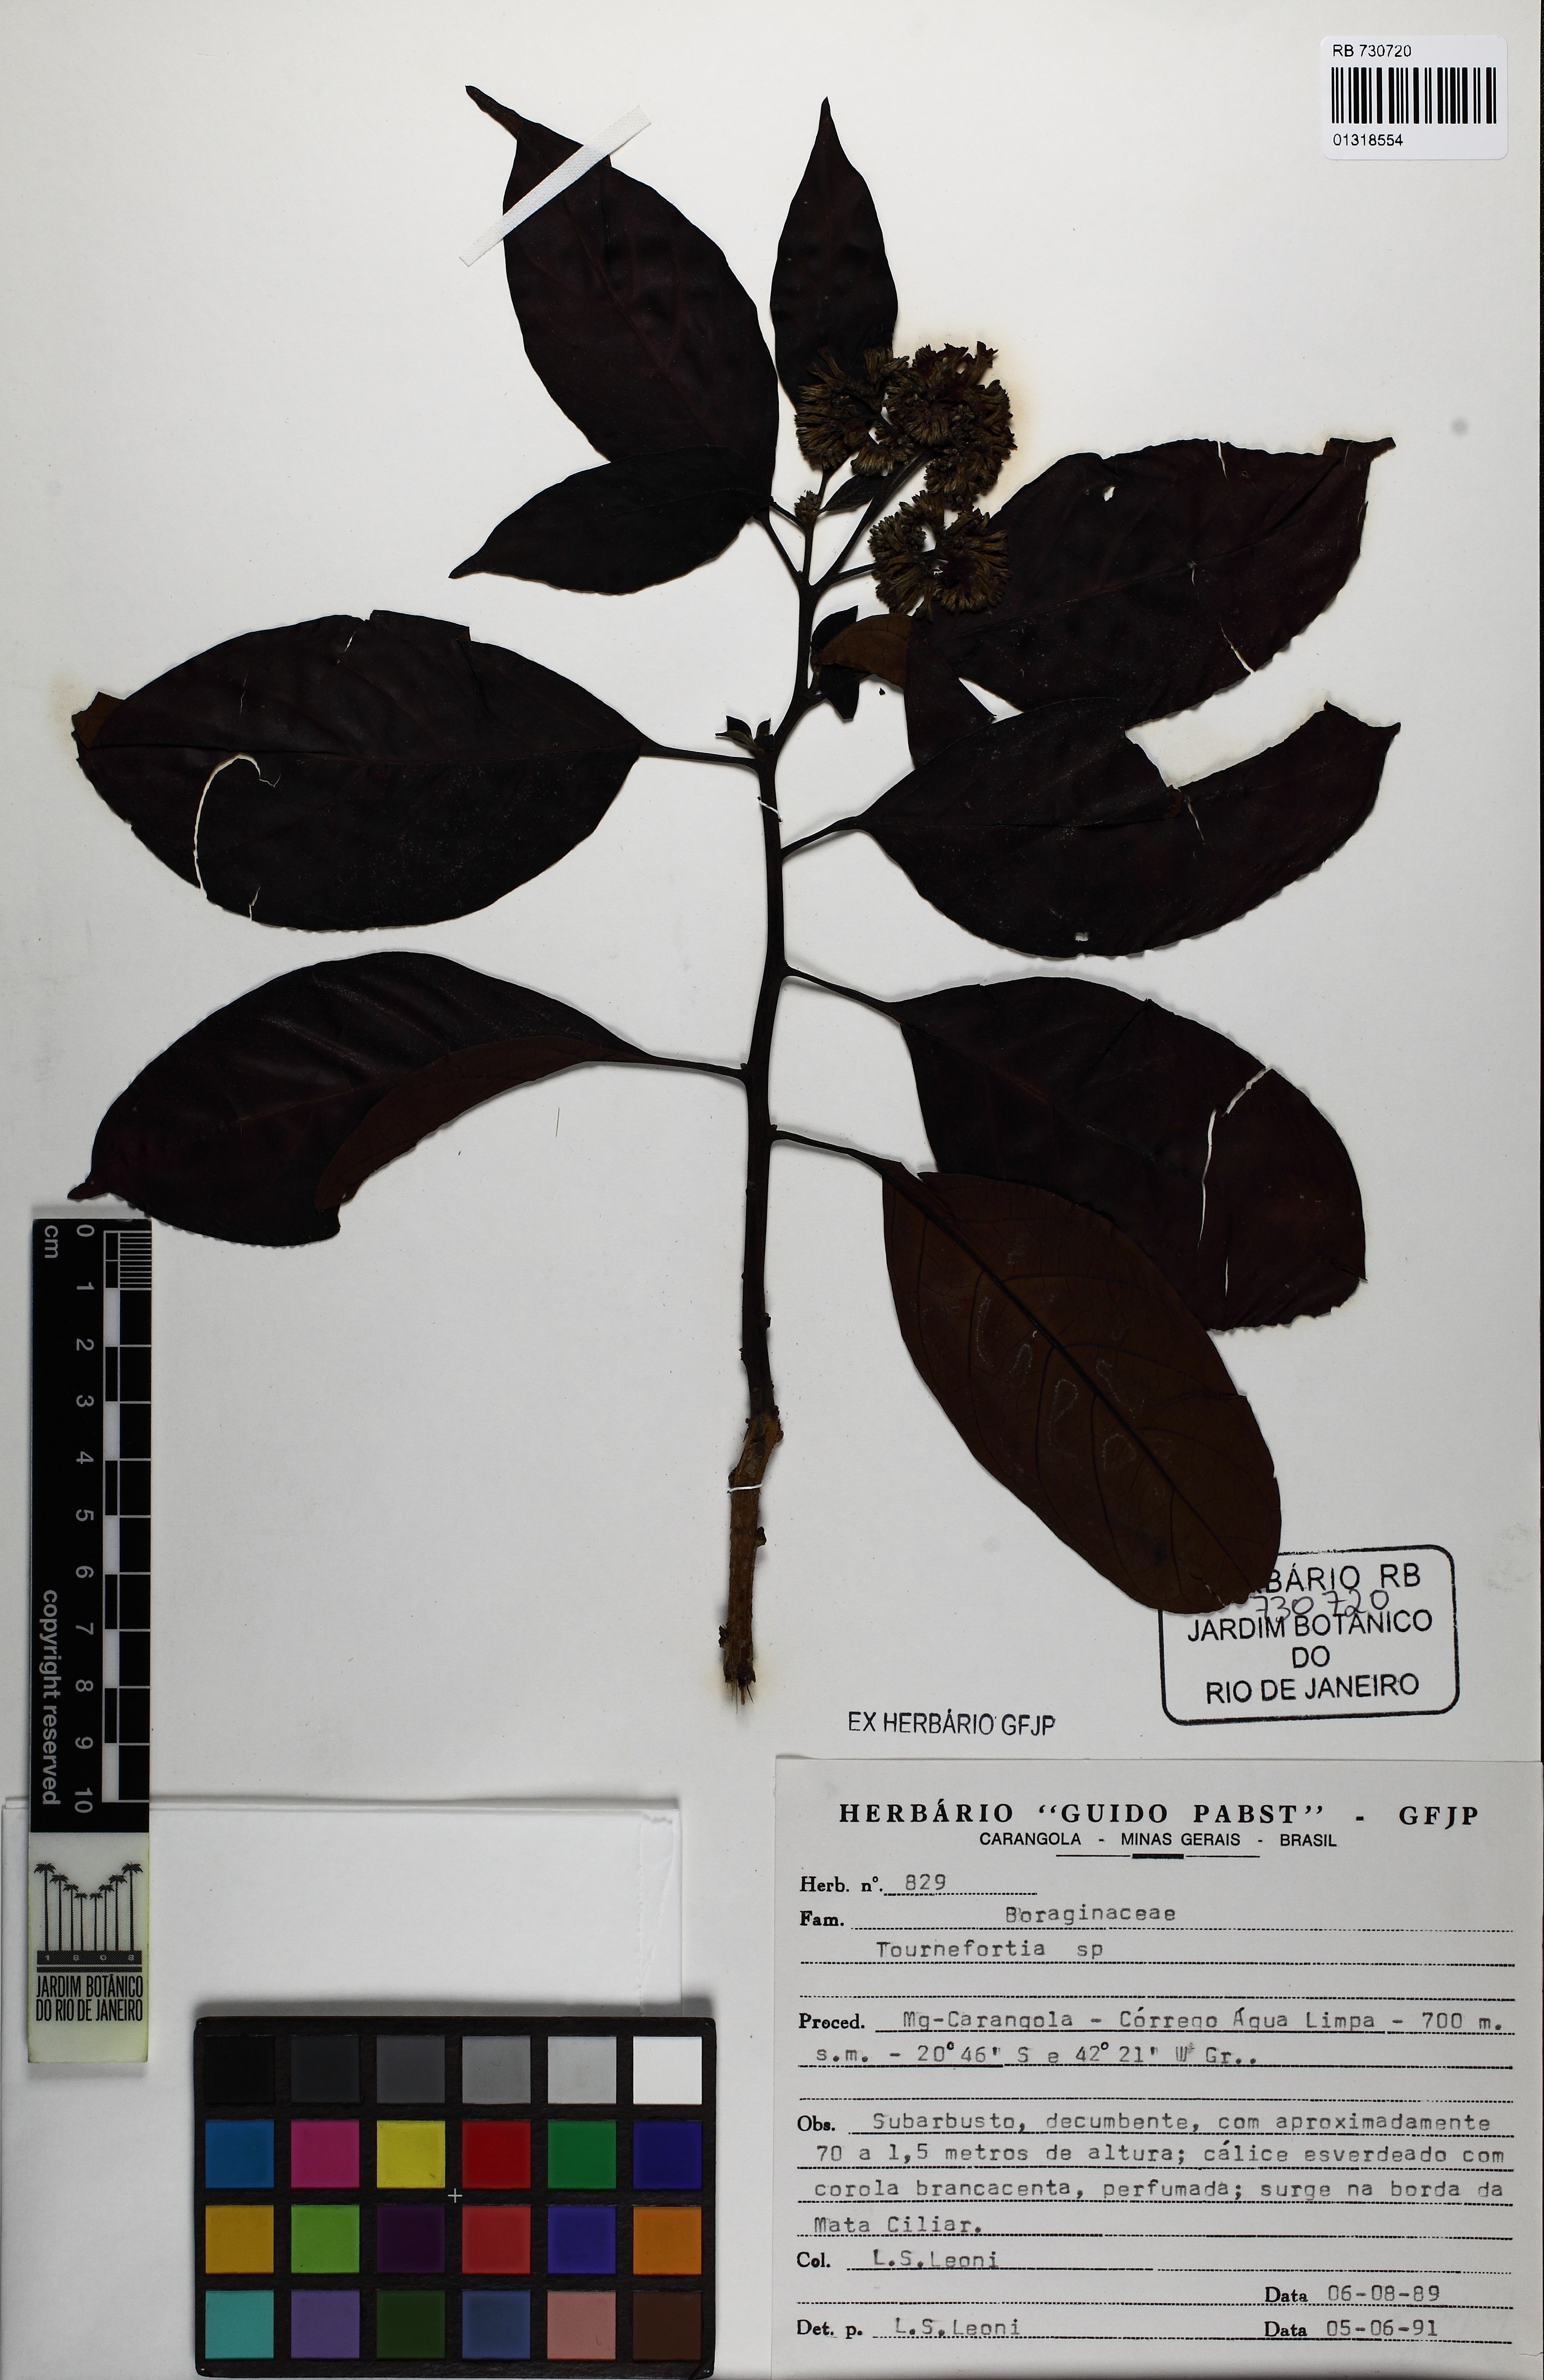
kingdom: Plantae
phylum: Tracheophyta
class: Magnoliopsida
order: Boraginales
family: Heliotropiaceae
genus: Heliotropium
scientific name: Heliotropium verdcourtii
